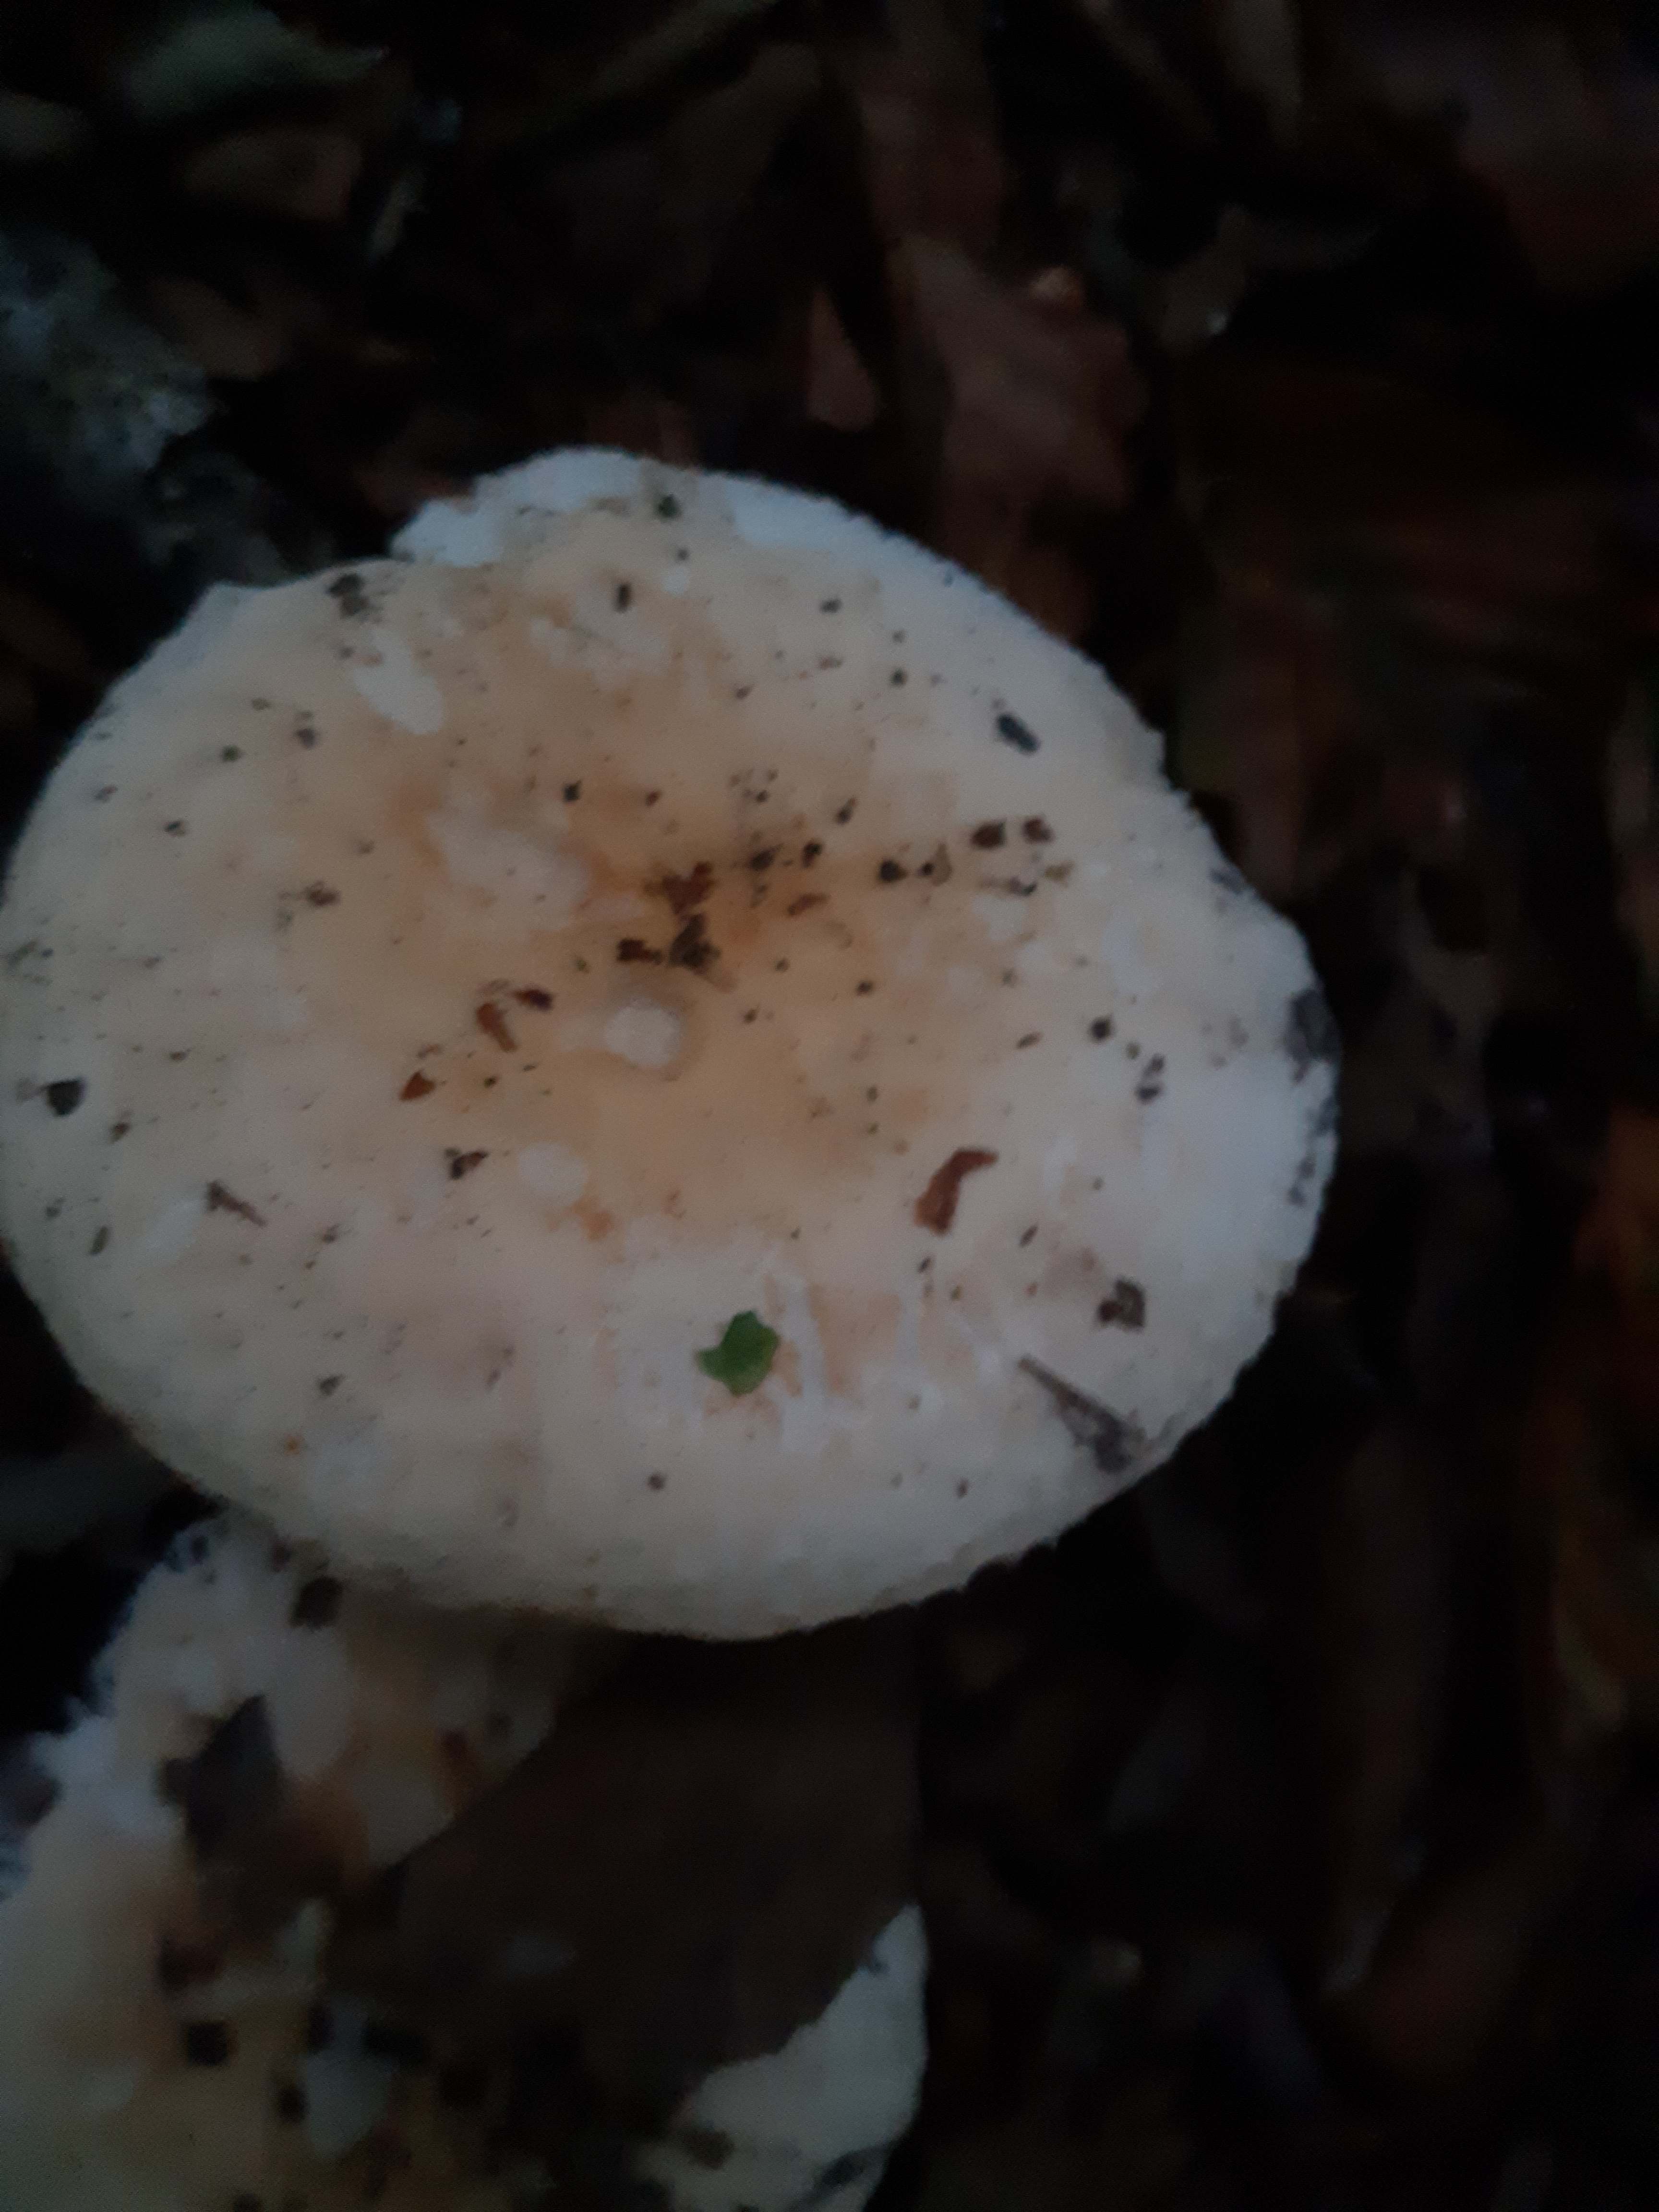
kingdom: Fungi
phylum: Basidiomycota
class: Agaricomycetes
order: Russulales
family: Russulaceae
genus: Russula
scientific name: Russula fellea
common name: galde-skørhat
